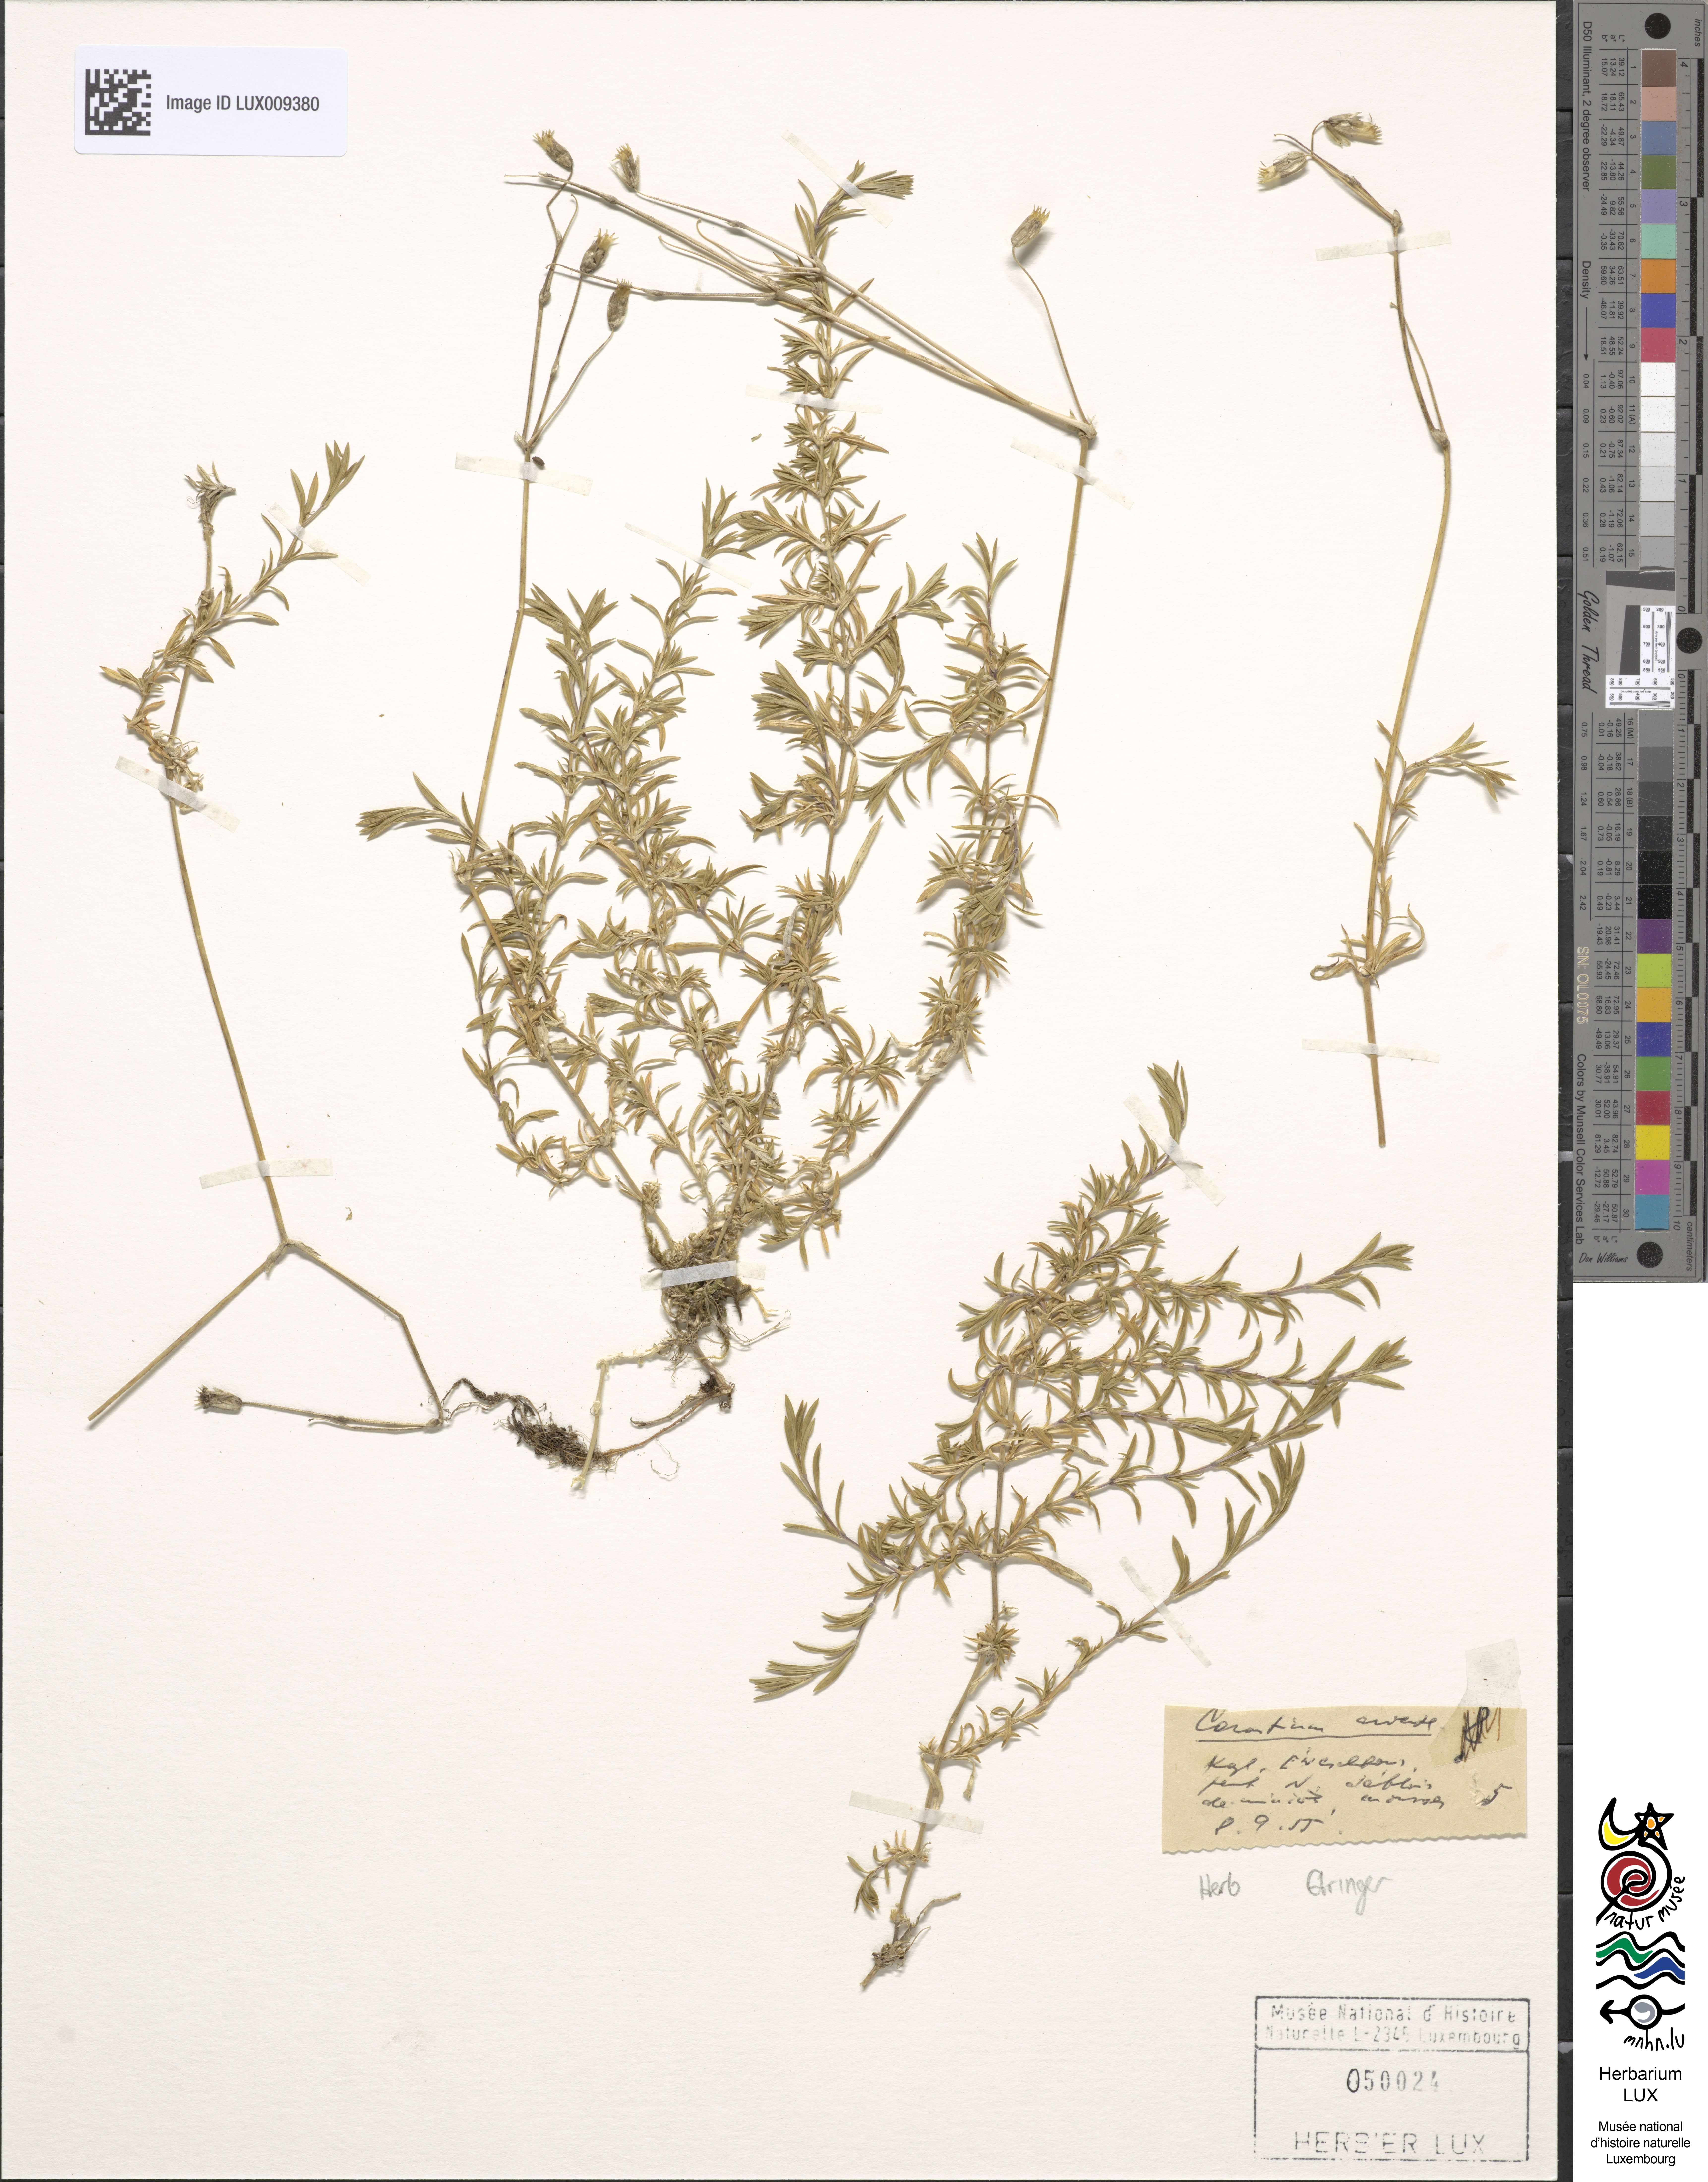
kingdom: Plantae
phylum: Tracheophyta
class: Magnoliopsida
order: Caryophyllales
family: Caryophyllaceae
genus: Cerastium
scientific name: Cerastium arvense
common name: Field mouse-ear
